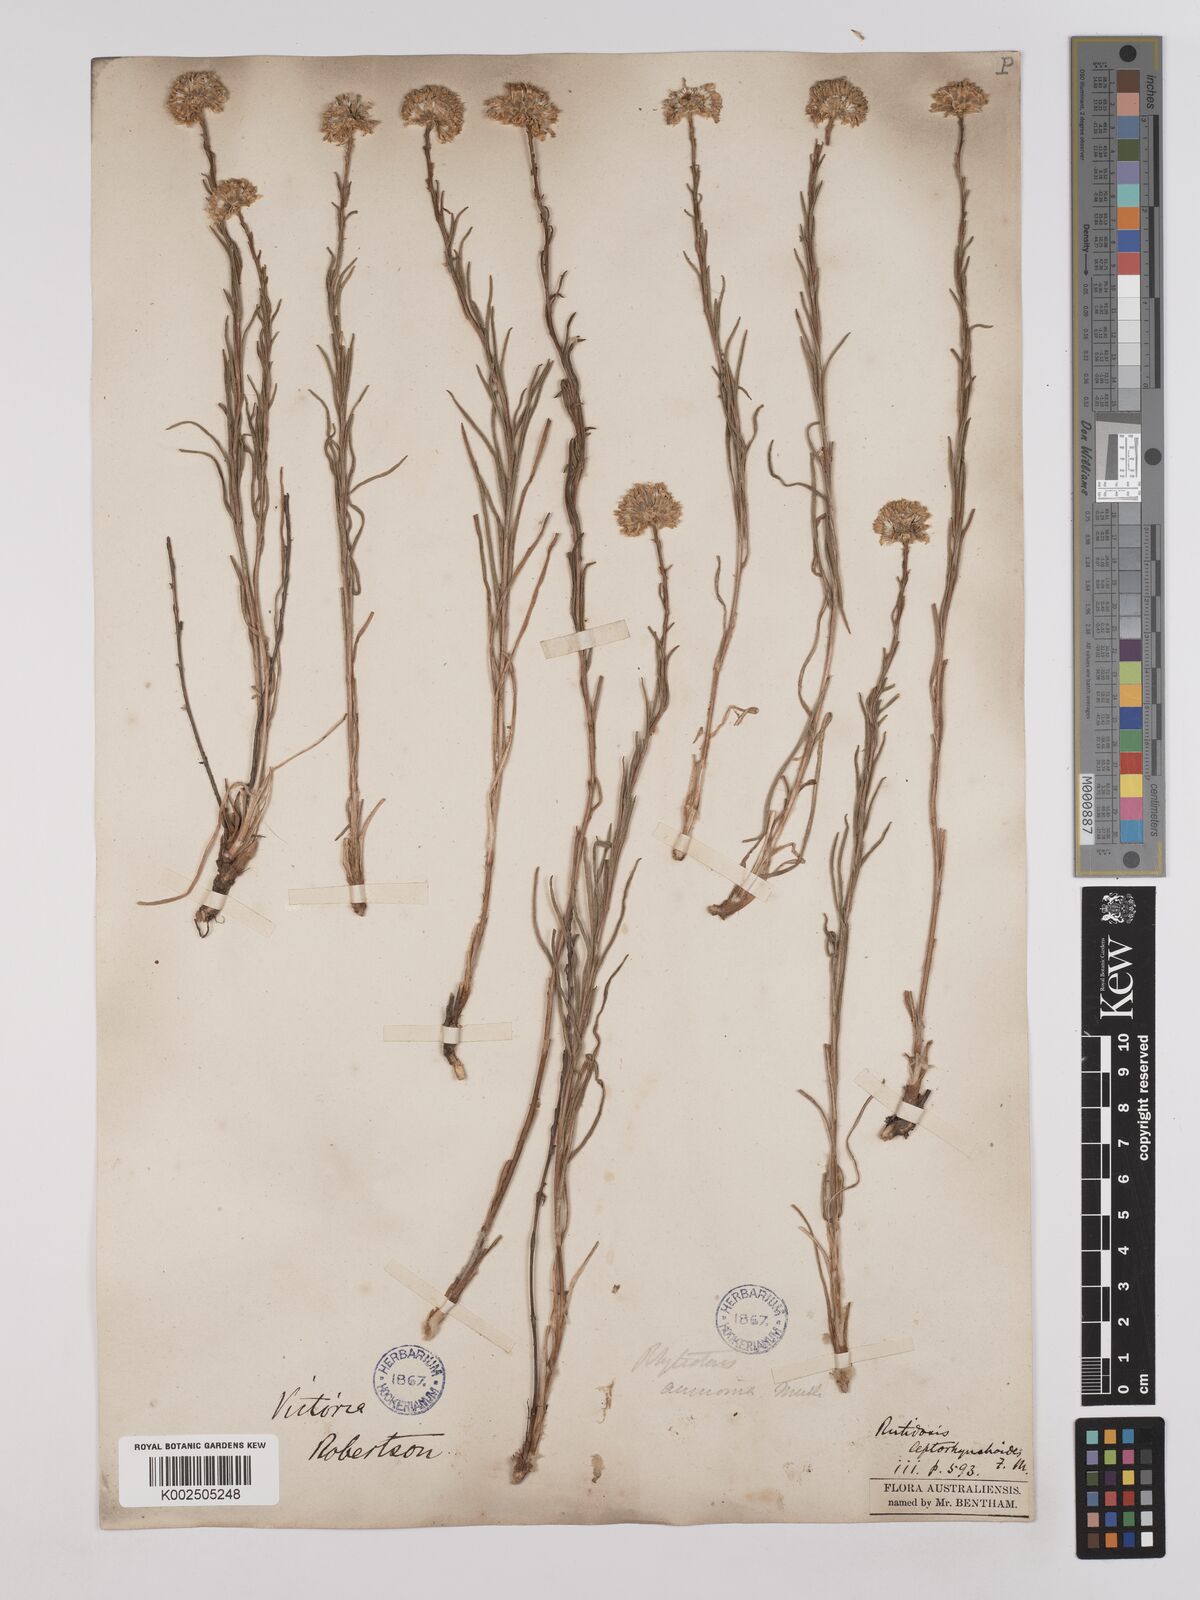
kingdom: Plantae
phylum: Tracheophyta
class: Magnoliopsida
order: Asterales
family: Asteraceae
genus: Rutidosis
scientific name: Rutidosis leptorrhynchoides
